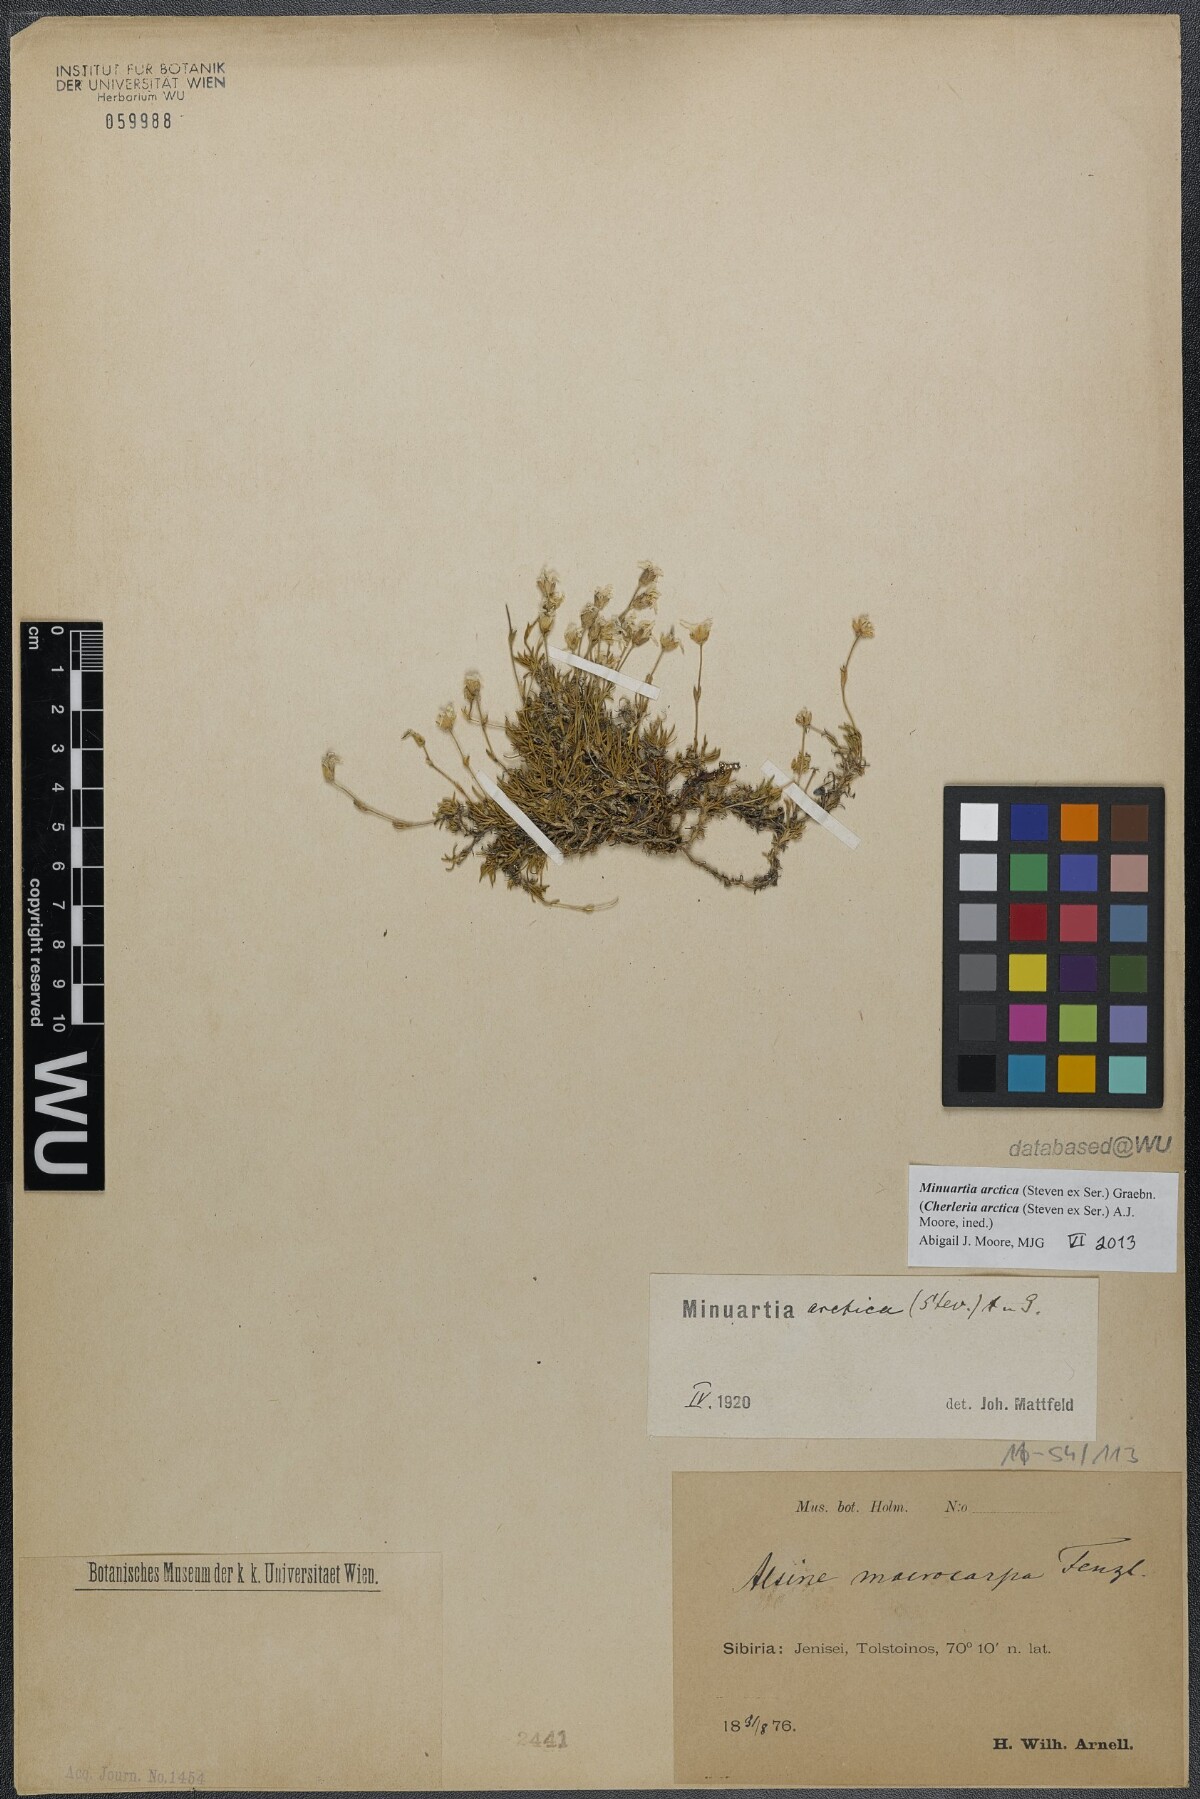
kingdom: Plantae
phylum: Tracheophyta
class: Magnoliopsida
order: Caryophyllales
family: Caryophyllaceae
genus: Cherleria
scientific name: Cherleria arctica
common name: Arctic sandwort
